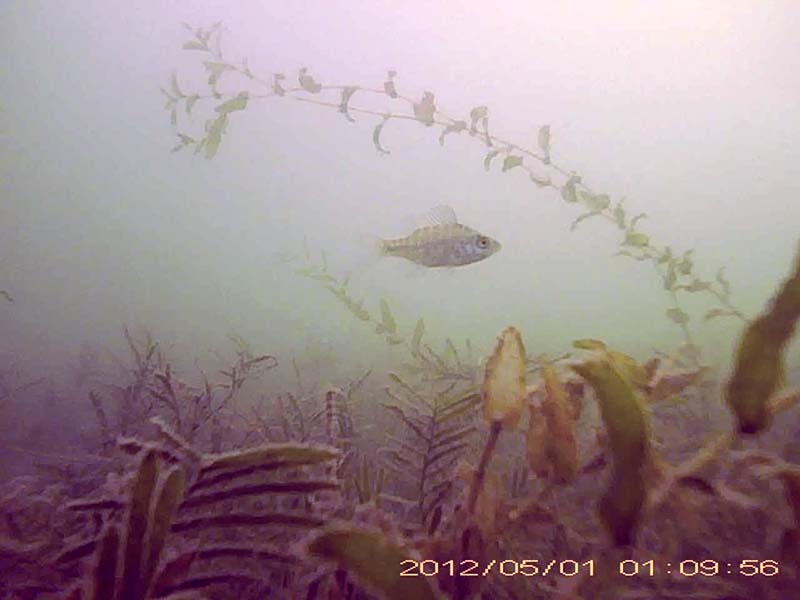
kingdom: Animalia
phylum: Chordata
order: Perciformes
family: Centrarchidae
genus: Lepomis
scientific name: Lepomis macrochirus
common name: ブルーギル
